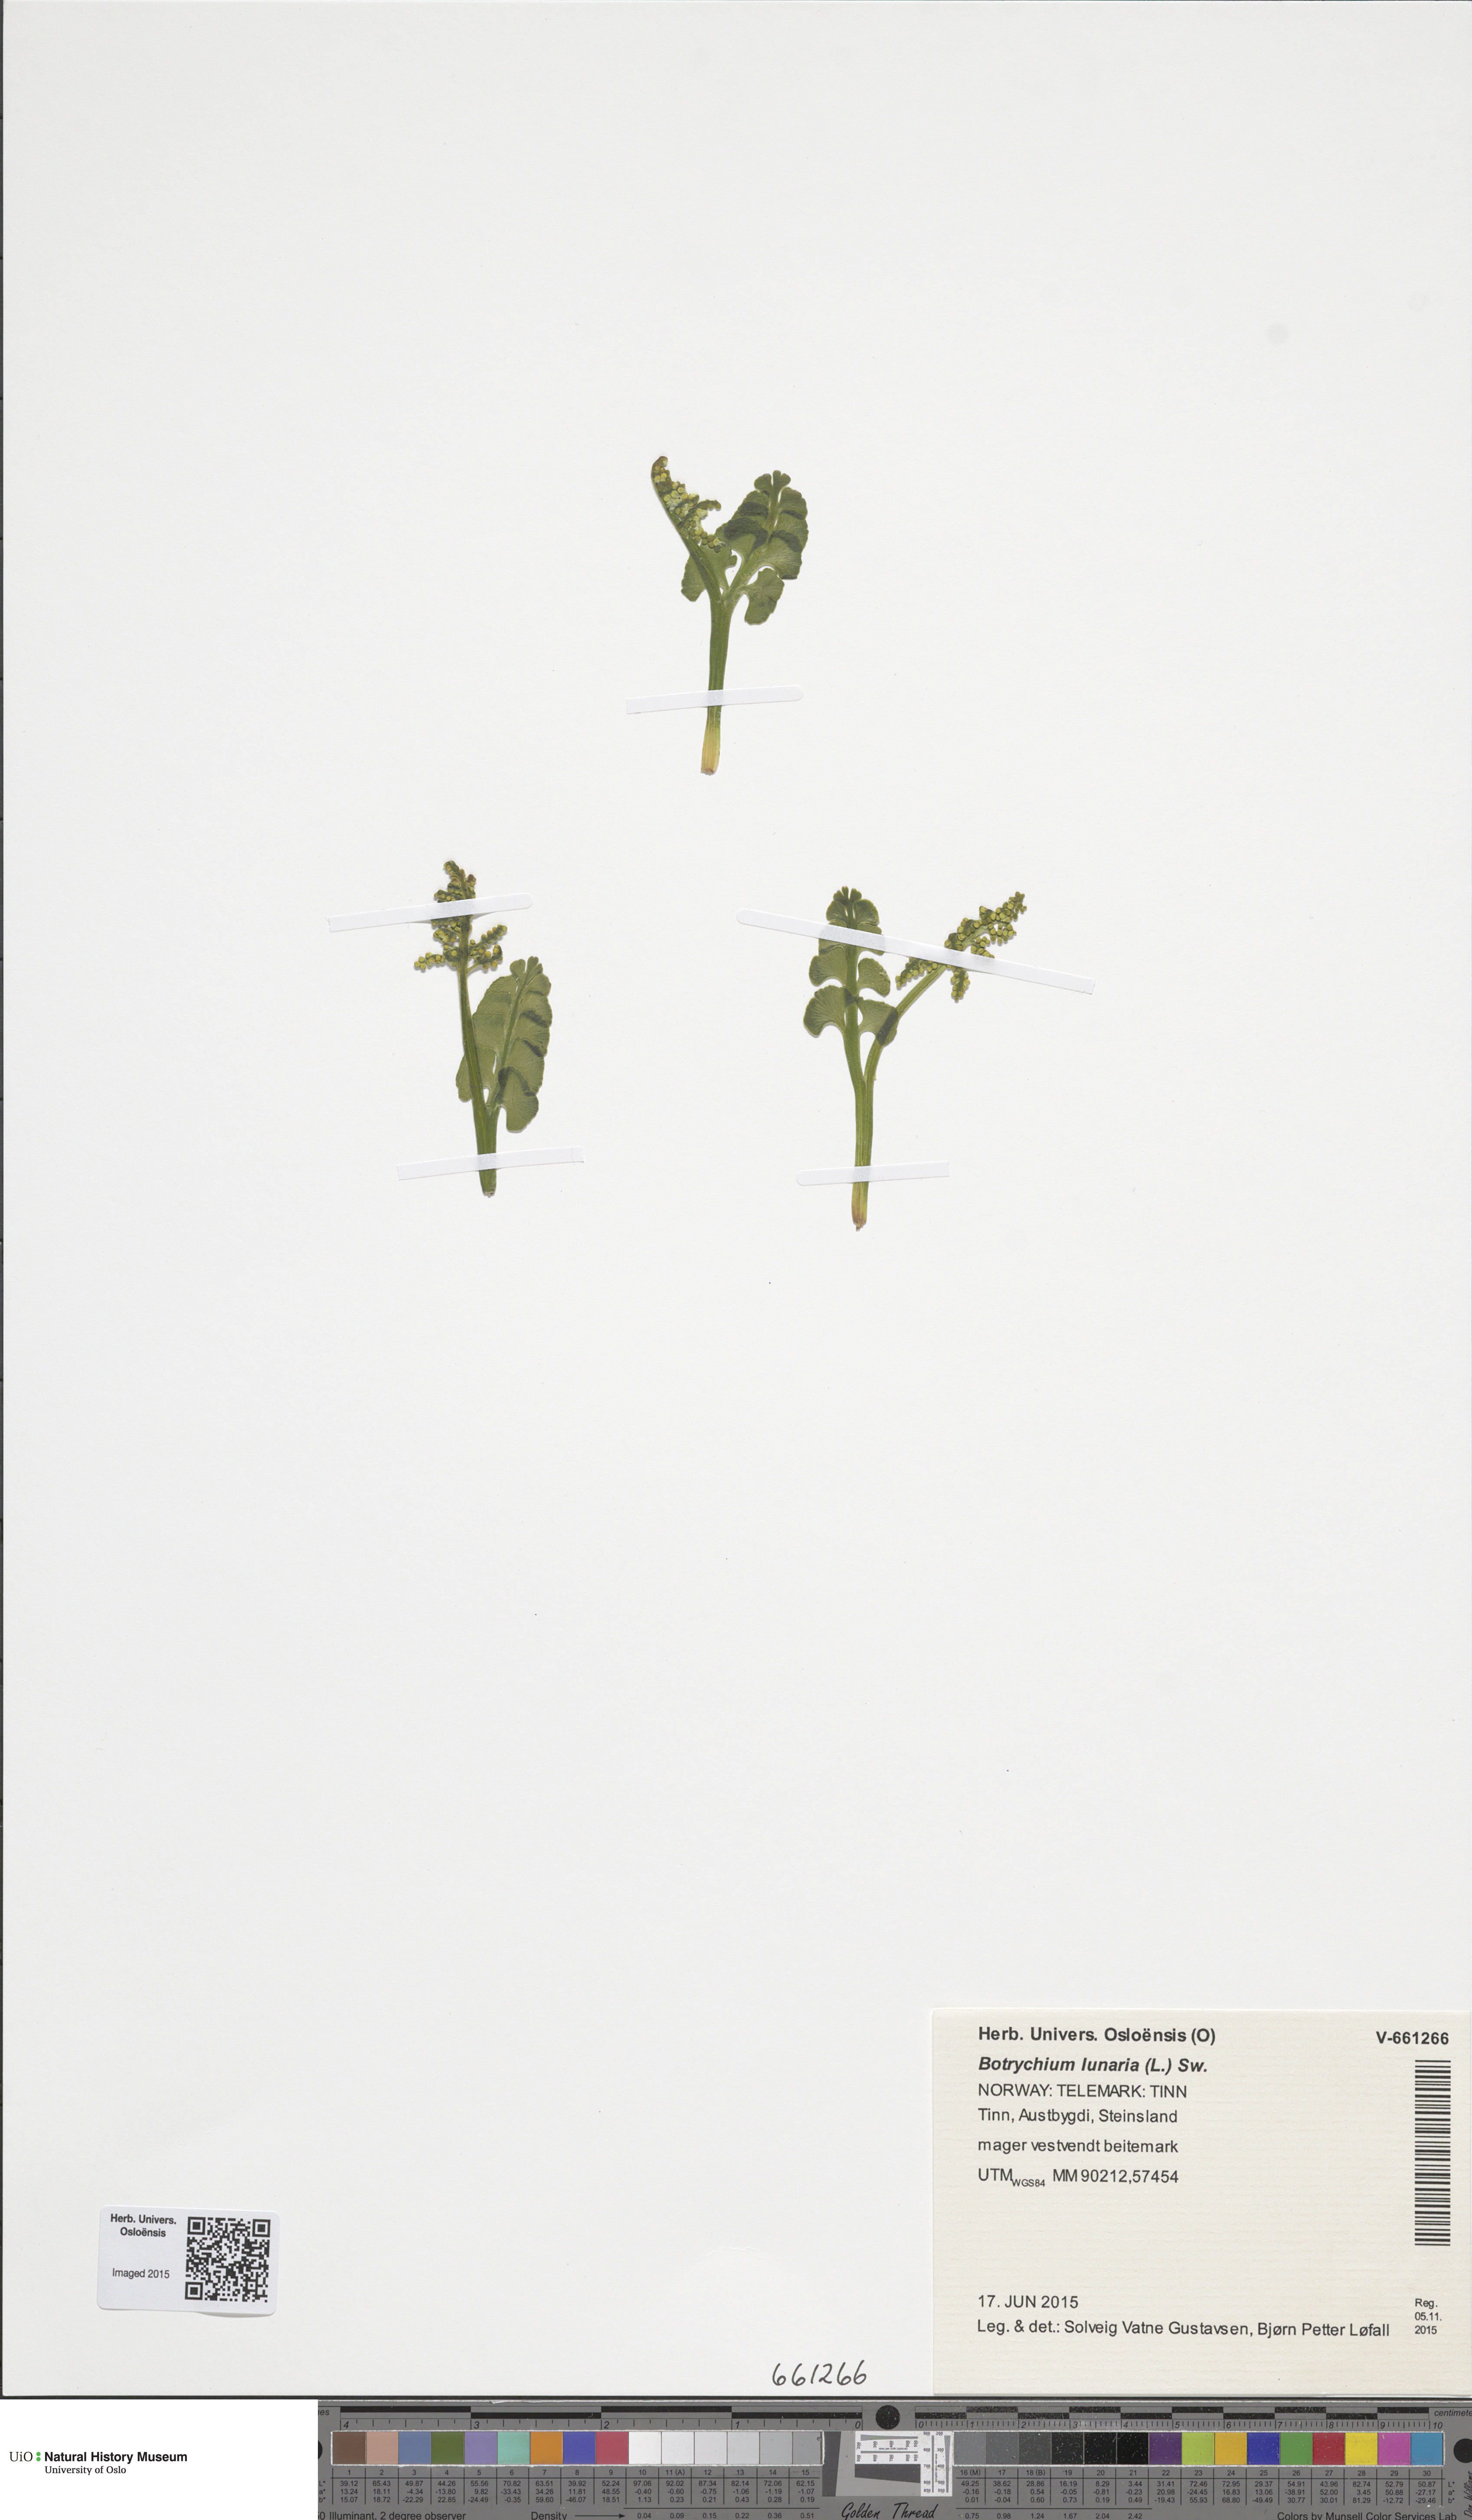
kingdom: Plantae
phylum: Tracheophyta
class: Polypodiopsida
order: Ophioglossales
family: Ophioglossaceae
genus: Botrychium
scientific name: Botrychium lunaria
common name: Moonwort
